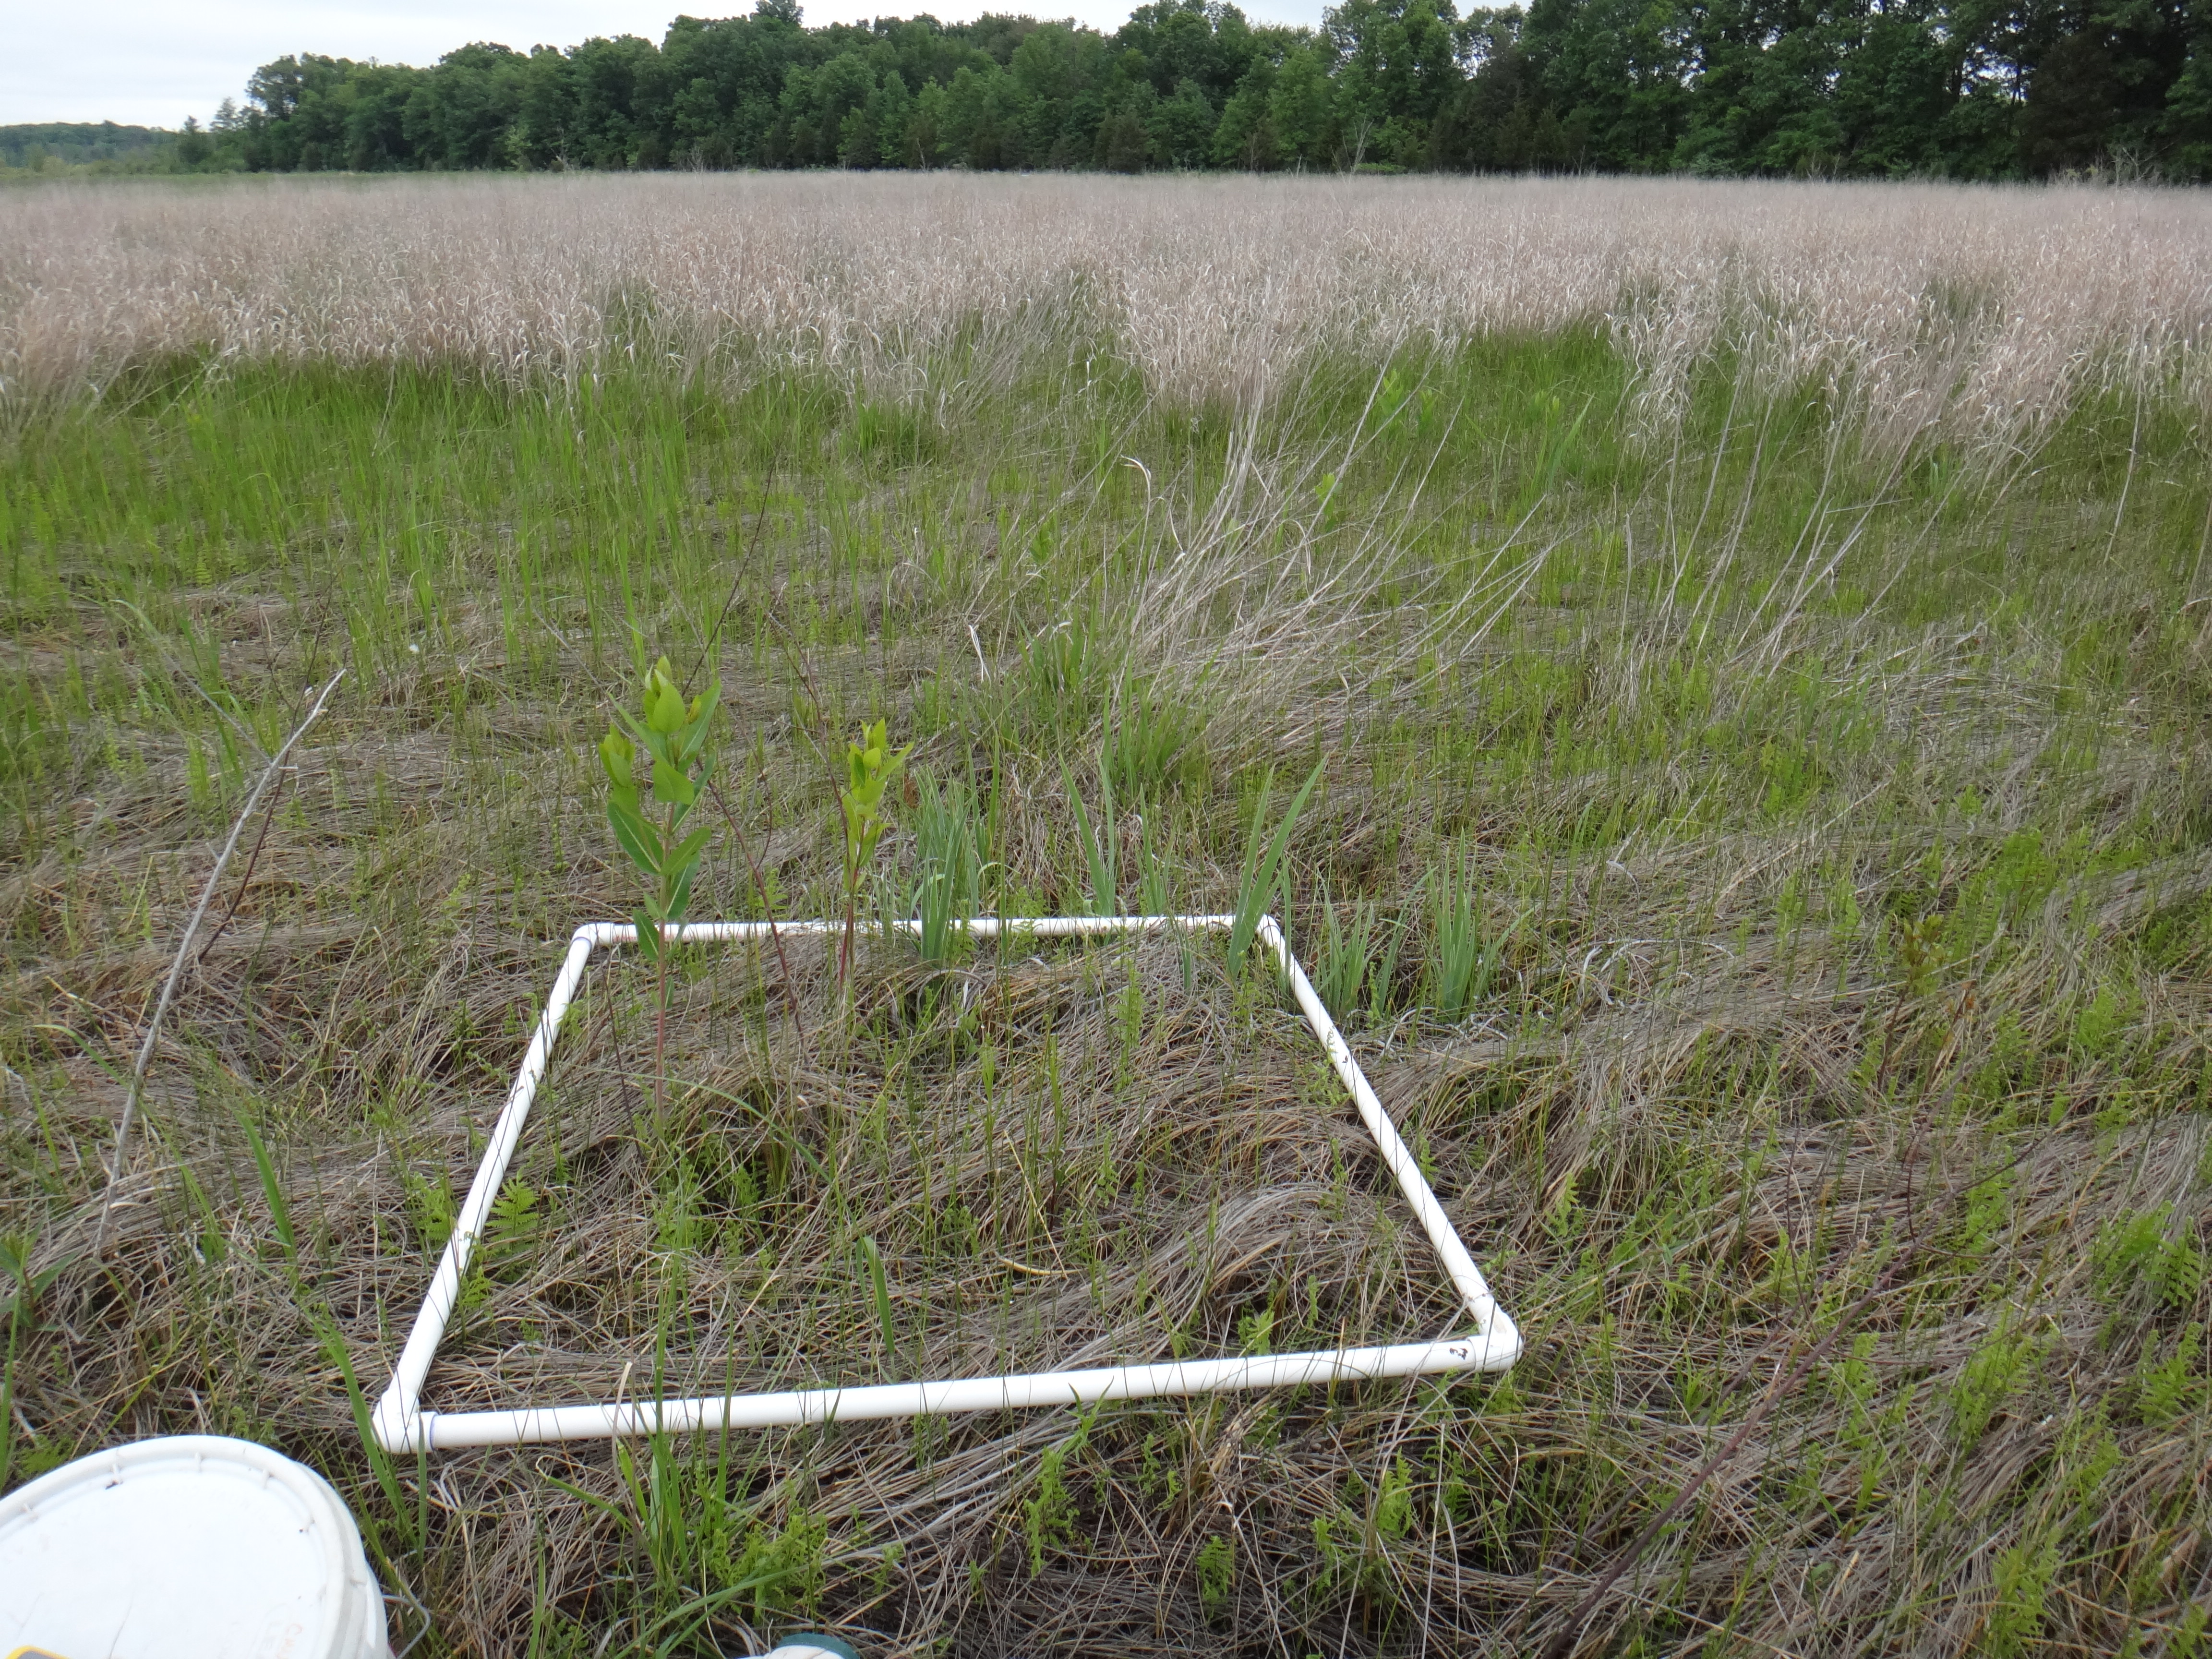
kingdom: Plantae
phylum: Tracheophyta
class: Polypodiopsida
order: Polypodiales
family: Thelypteridaceae
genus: Thelypteris
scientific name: Thelypteris palustris
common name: Marsh fern
